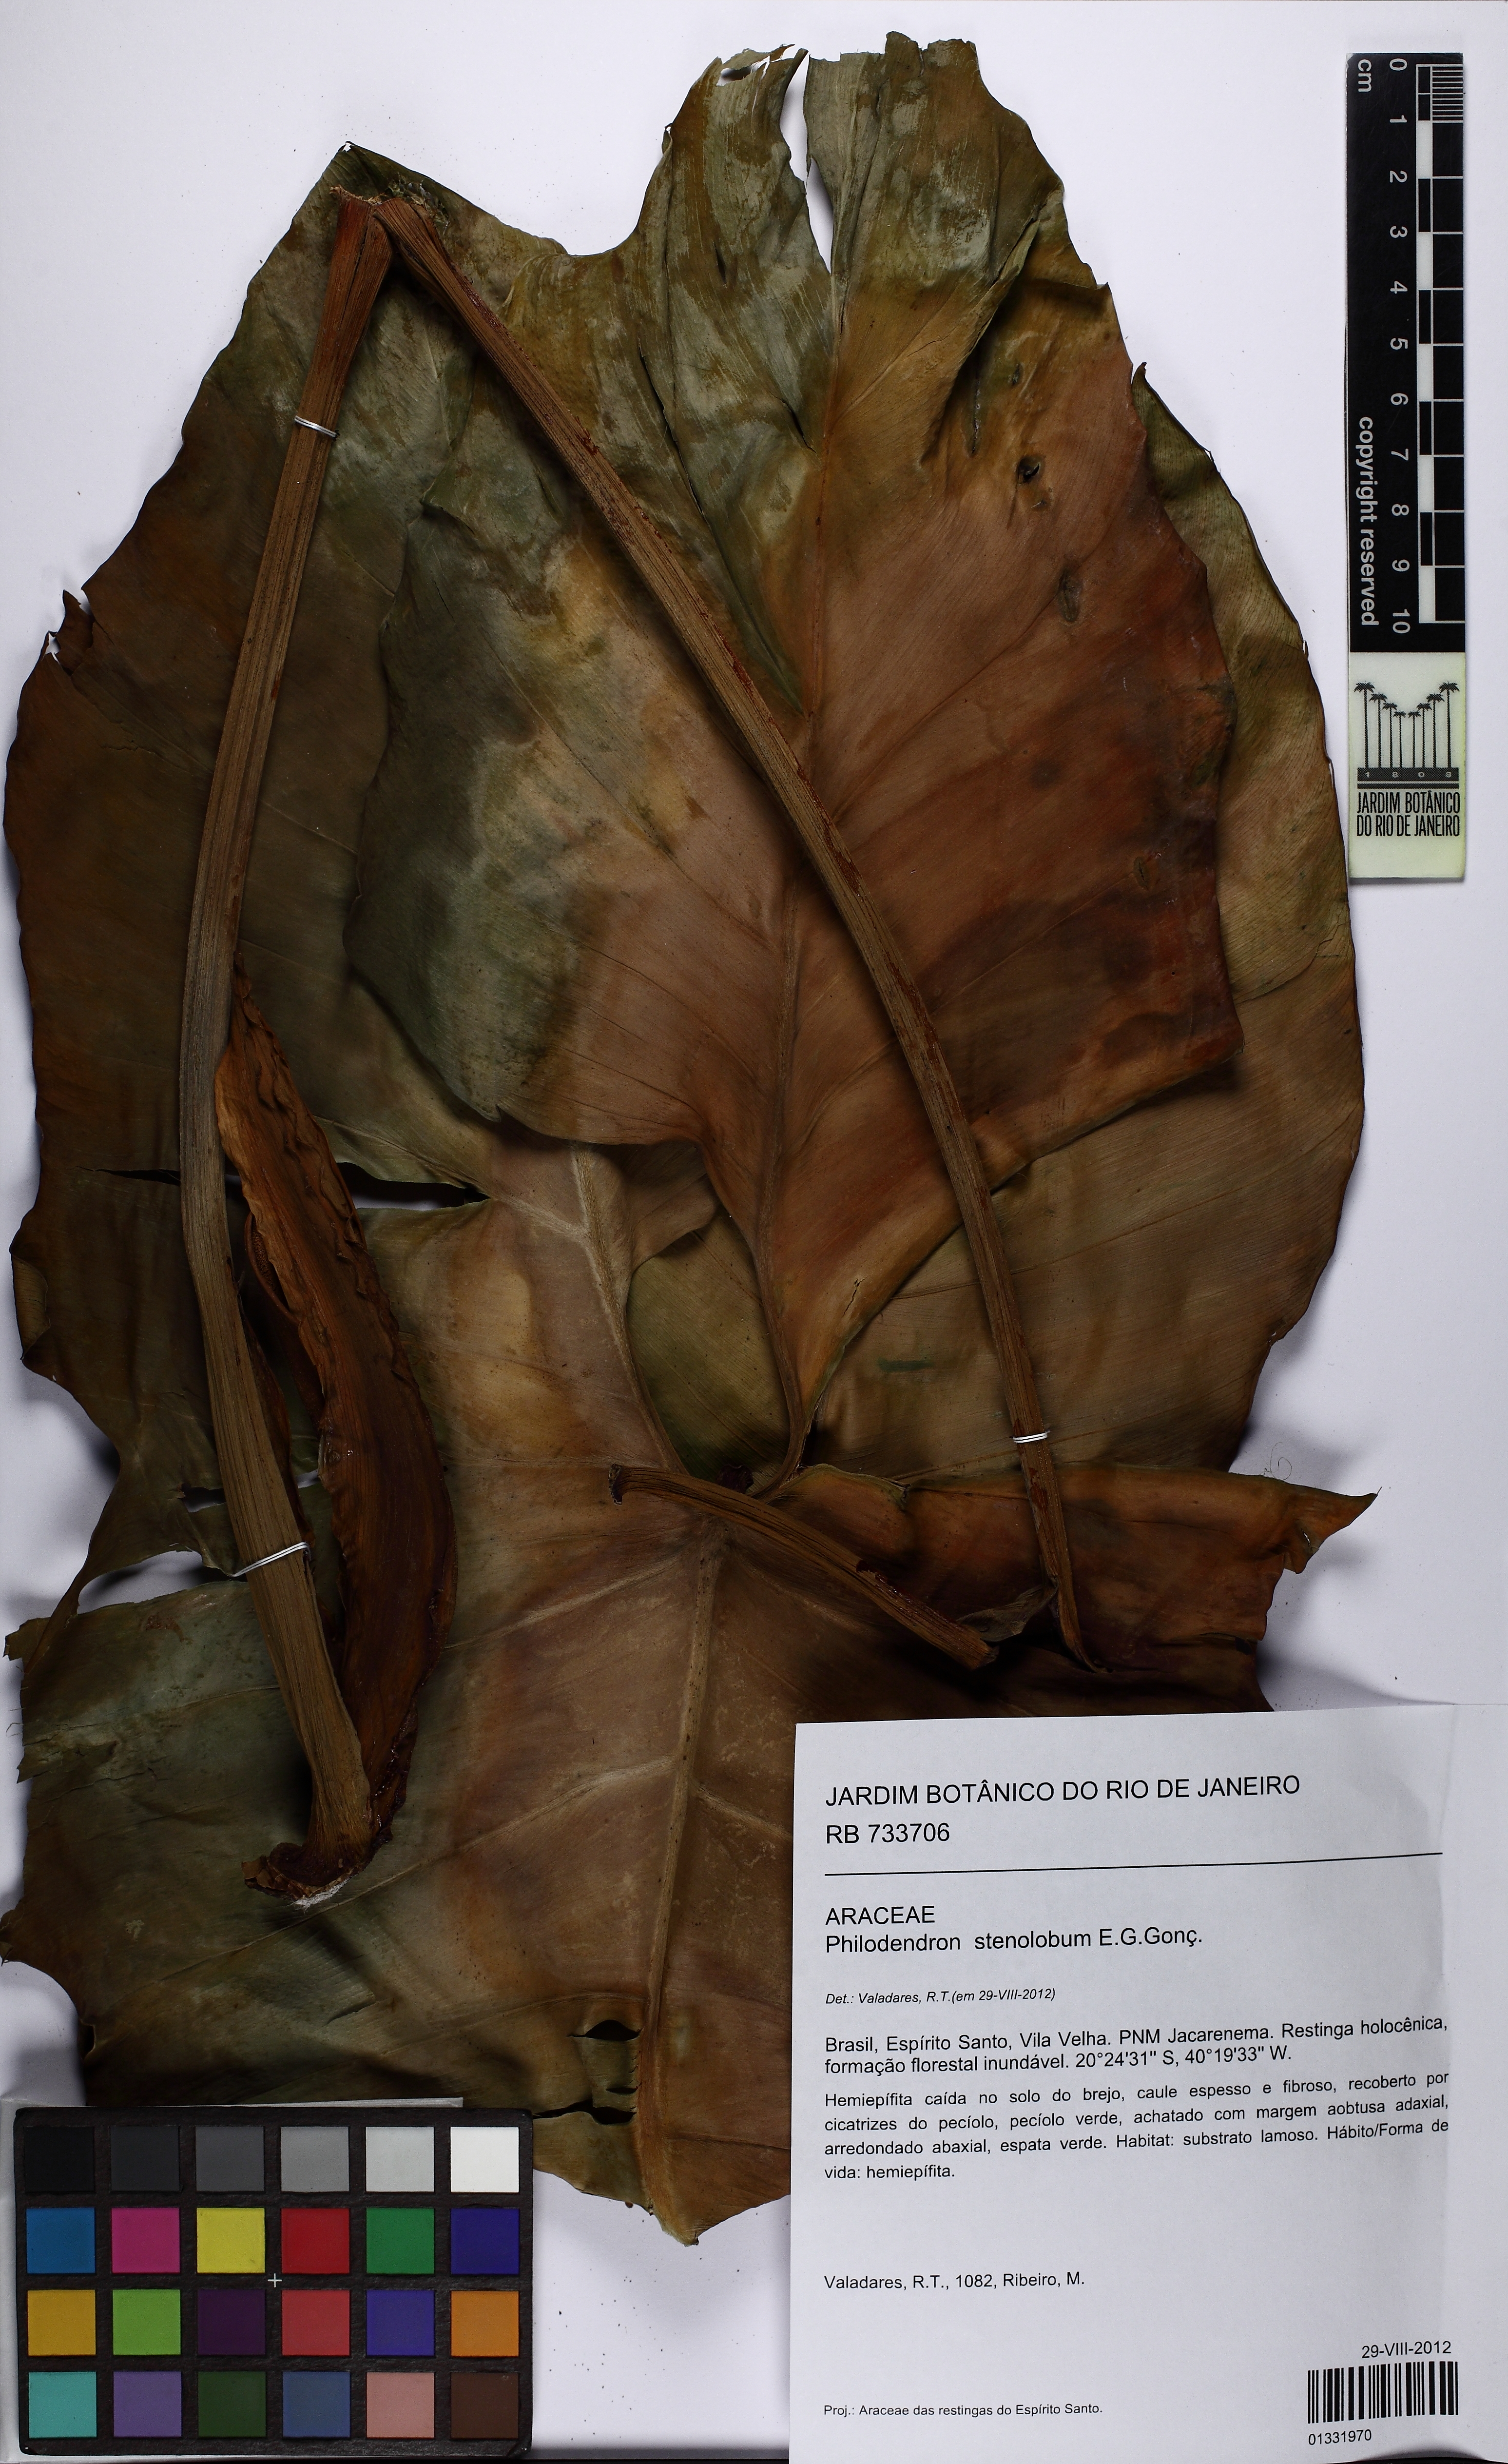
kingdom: Plantae
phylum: Tracheophyta
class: Liliopsida
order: Alismatales
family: Araceae
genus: Thaumatophyllum
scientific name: Thaumatophyllum stenolobum
